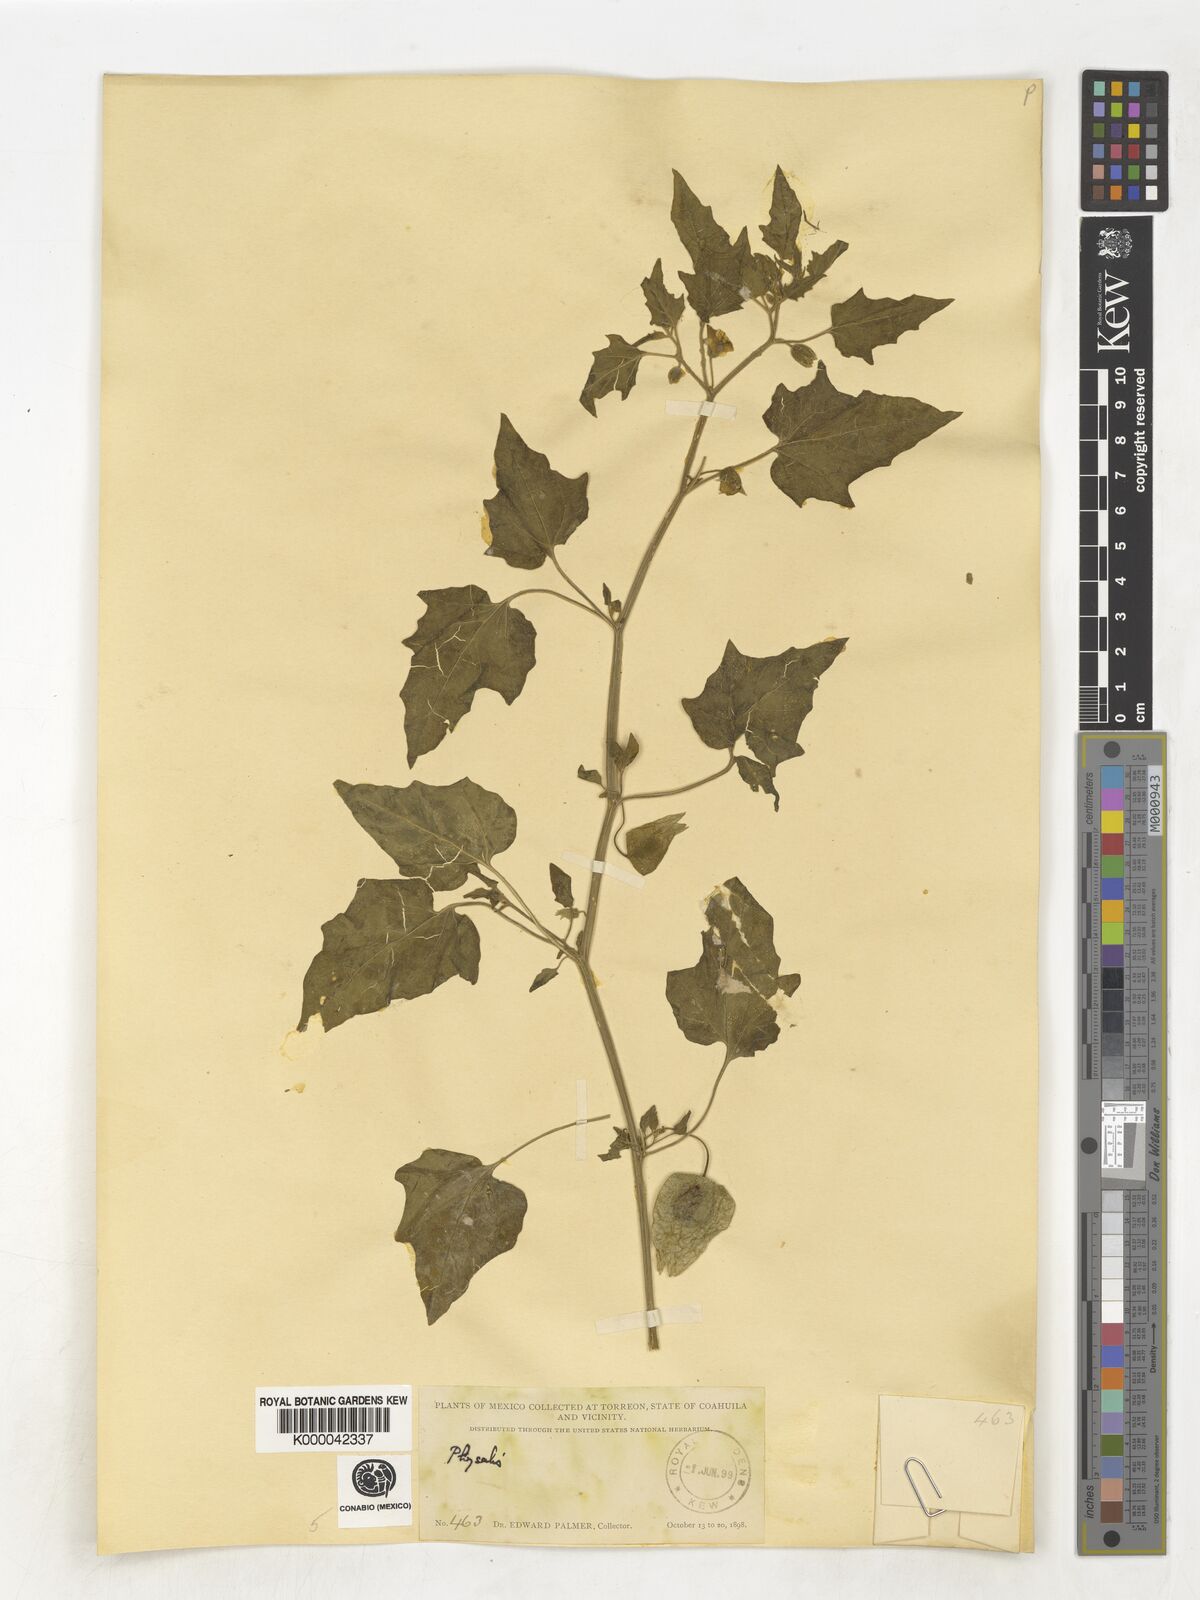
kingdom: Plantae
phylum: Tracheophyta
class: Magnoliopsida
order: Solanales
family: Solanaceae
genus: Physalis
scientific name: Physalis
